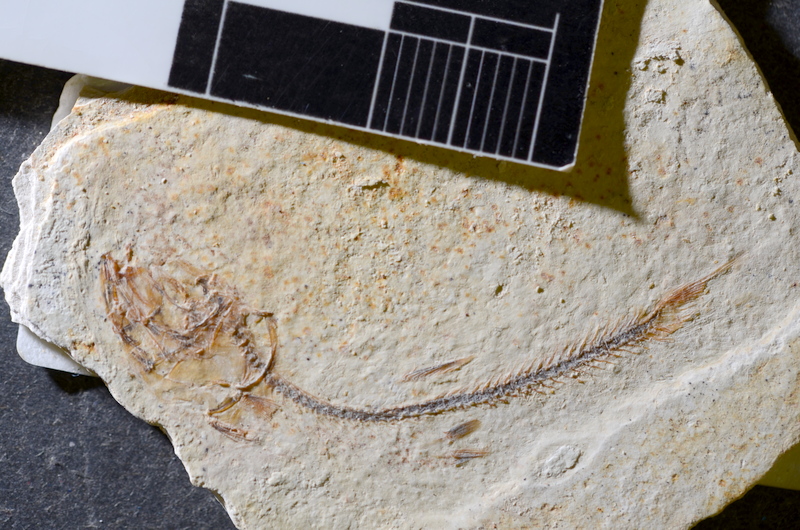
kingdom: Animalia
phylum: Chordata
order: Salmoniformes
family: Orthogonikleithridae
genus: Orthogonikleithrus
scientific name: Orthogonikleithrus hoelli
